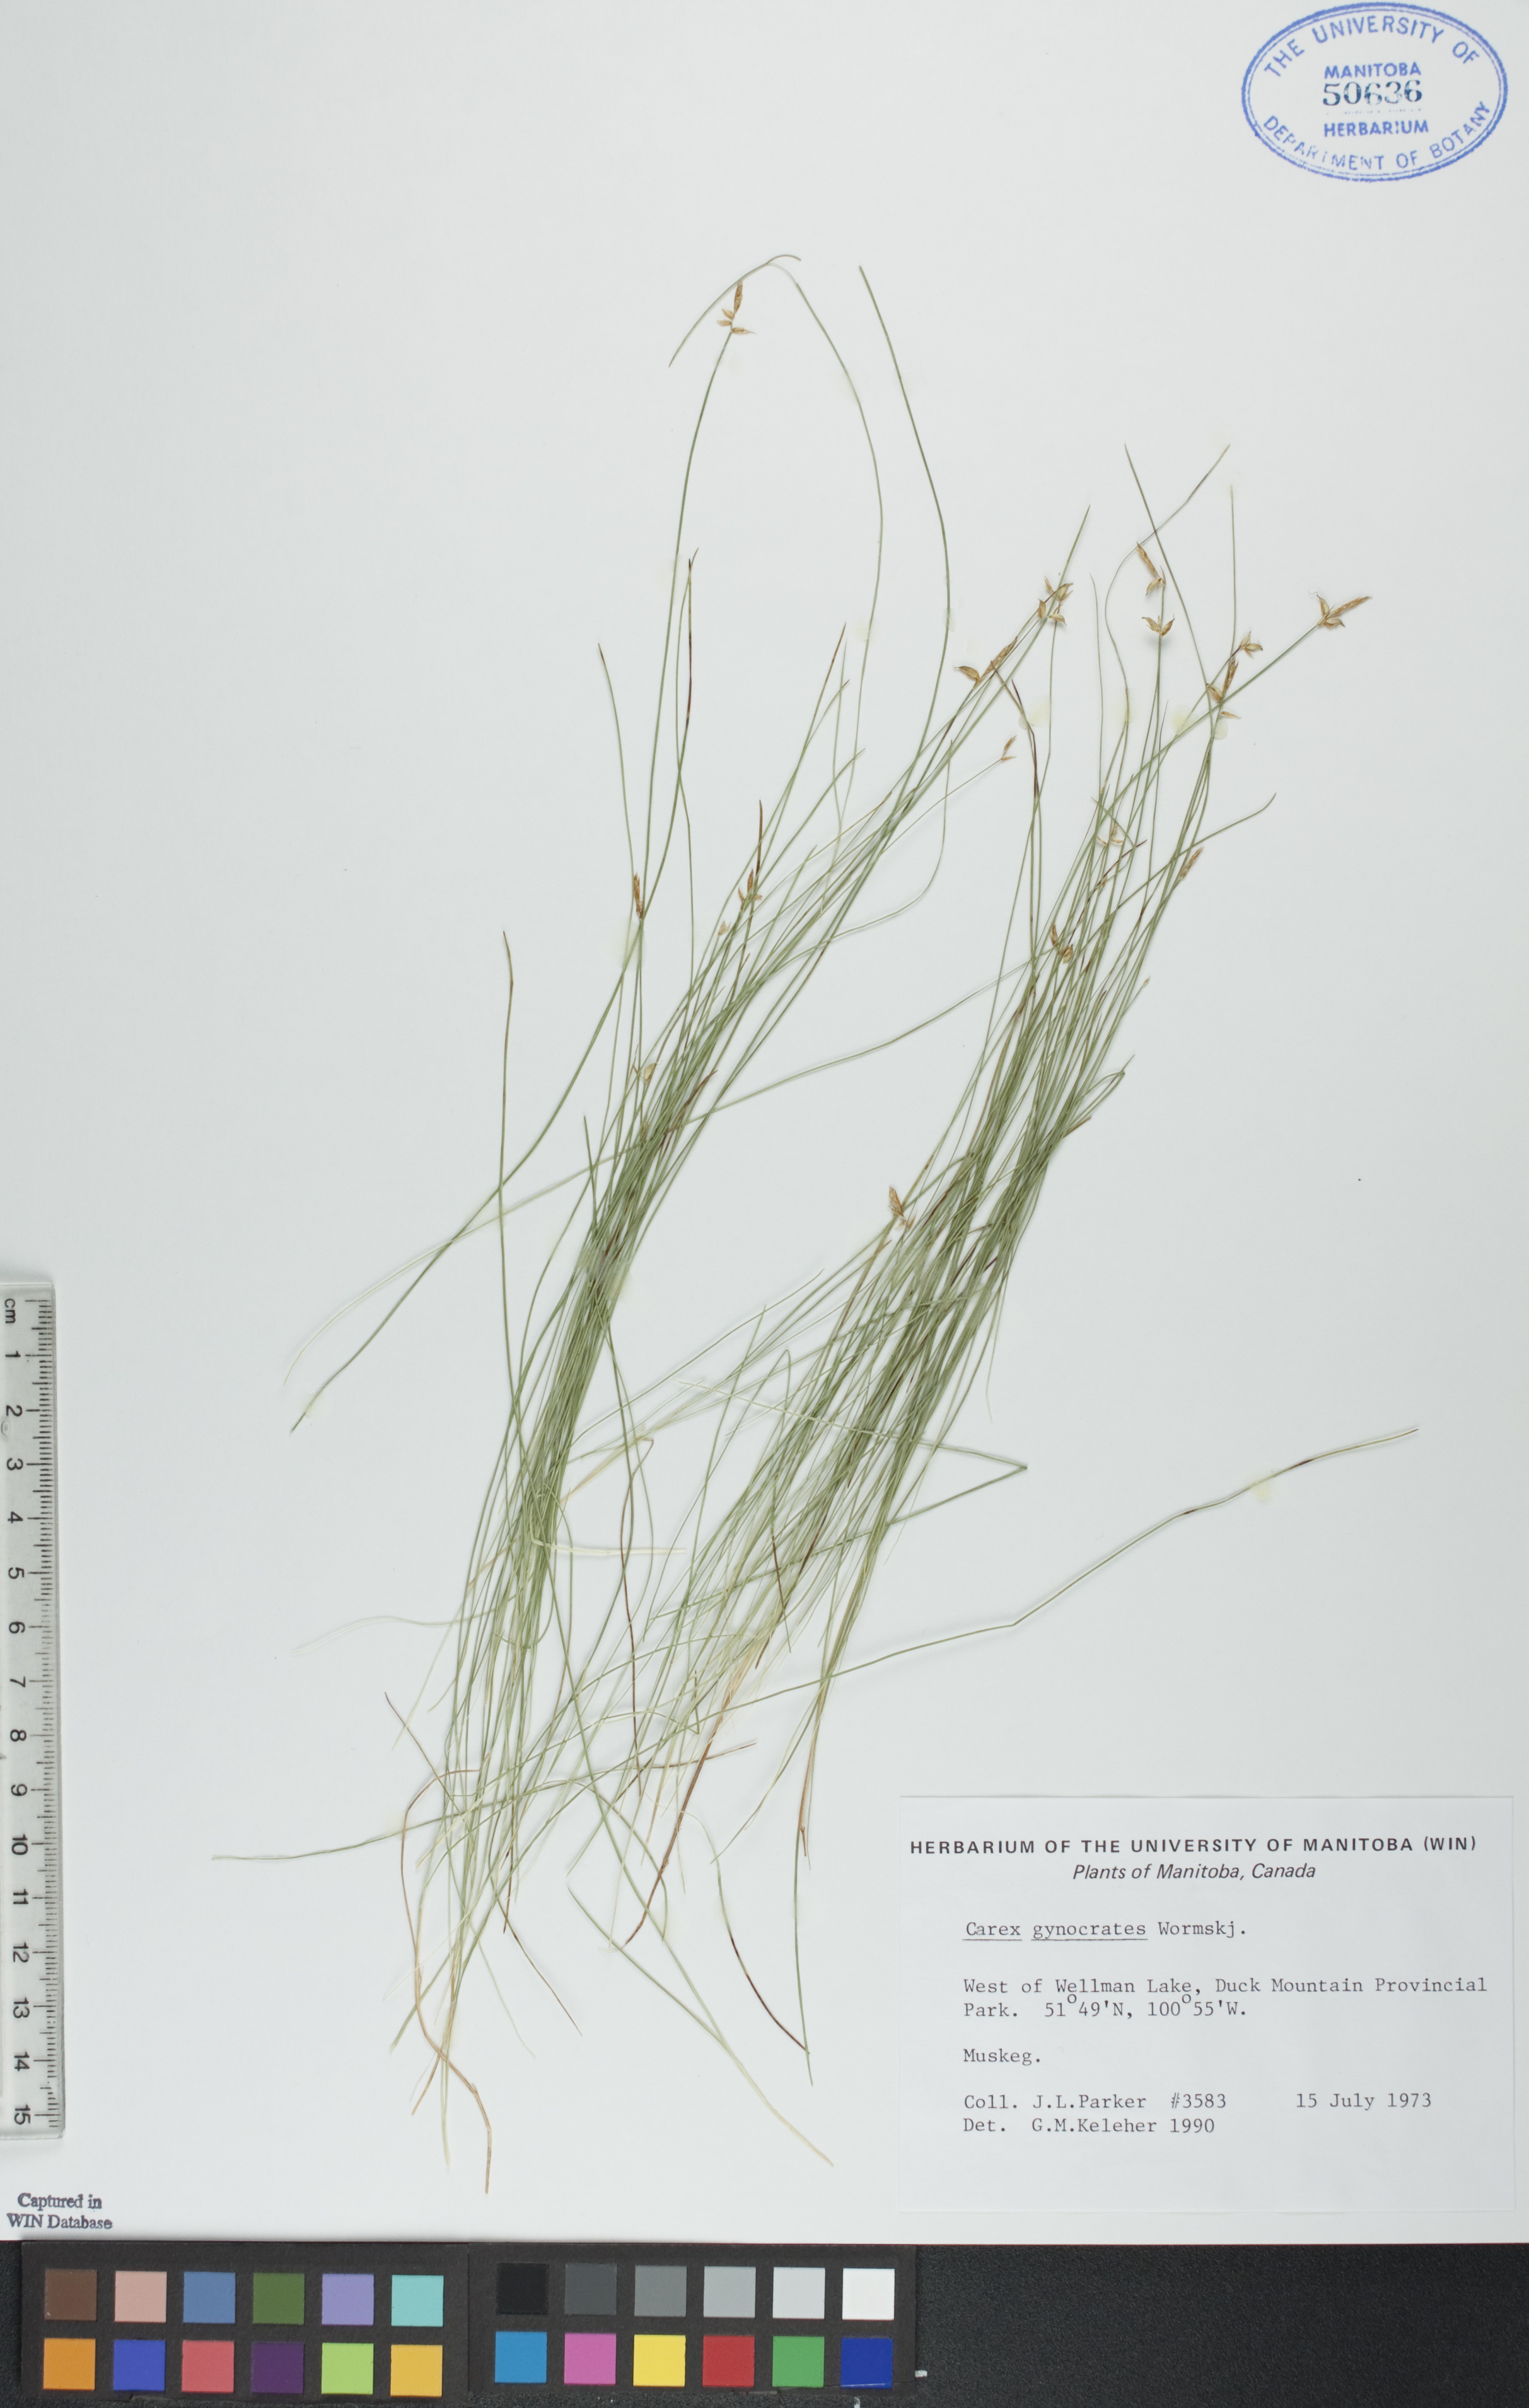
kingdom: Plantae
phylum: Tracheophyta
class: Liliopsida
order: Poales
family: Cyperaceae
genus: Carex
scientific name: Carex nardina
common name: Nard sedge
